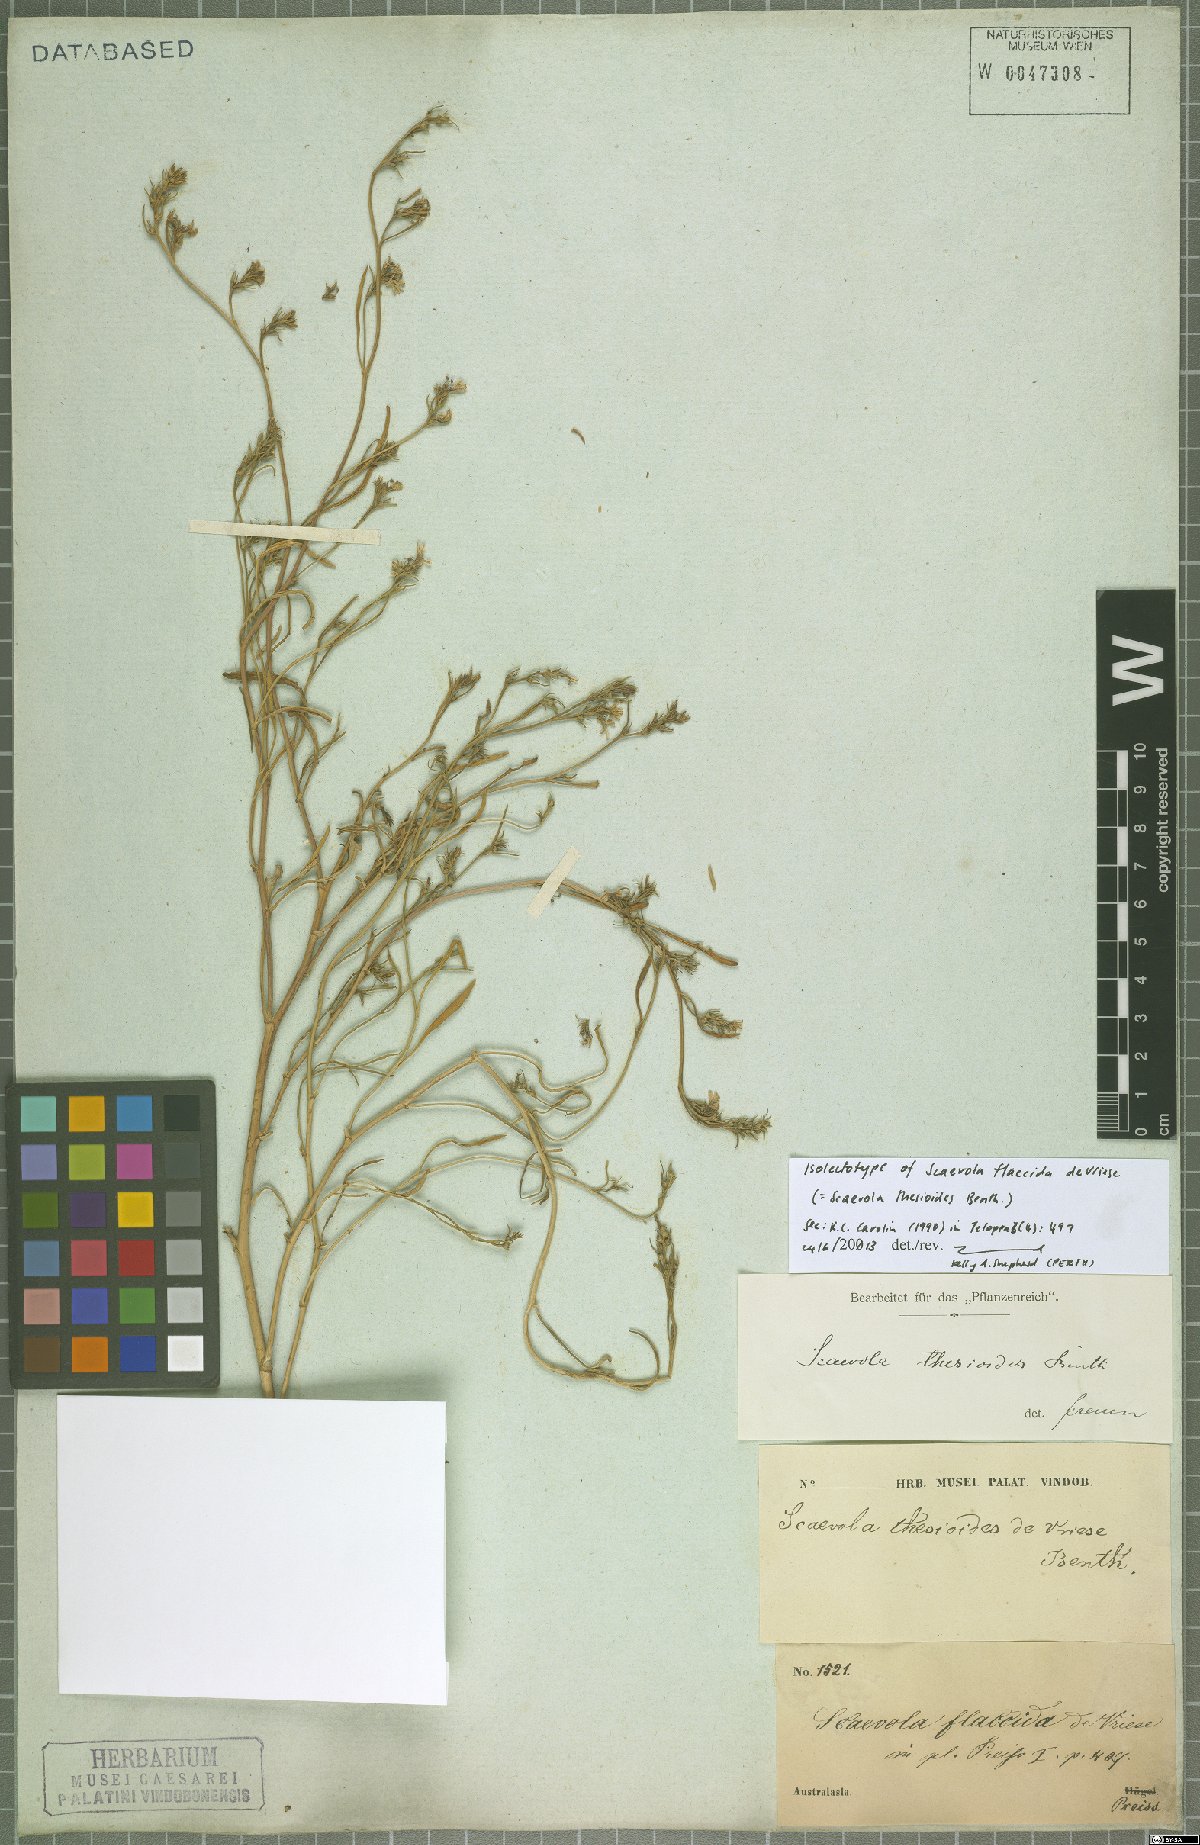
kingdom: Plantae
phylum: Tracheophyta
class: Magnoliopsida
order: Asterales
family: Goodeniaceae
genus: Scaevola
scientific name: Scaevola thesioides
